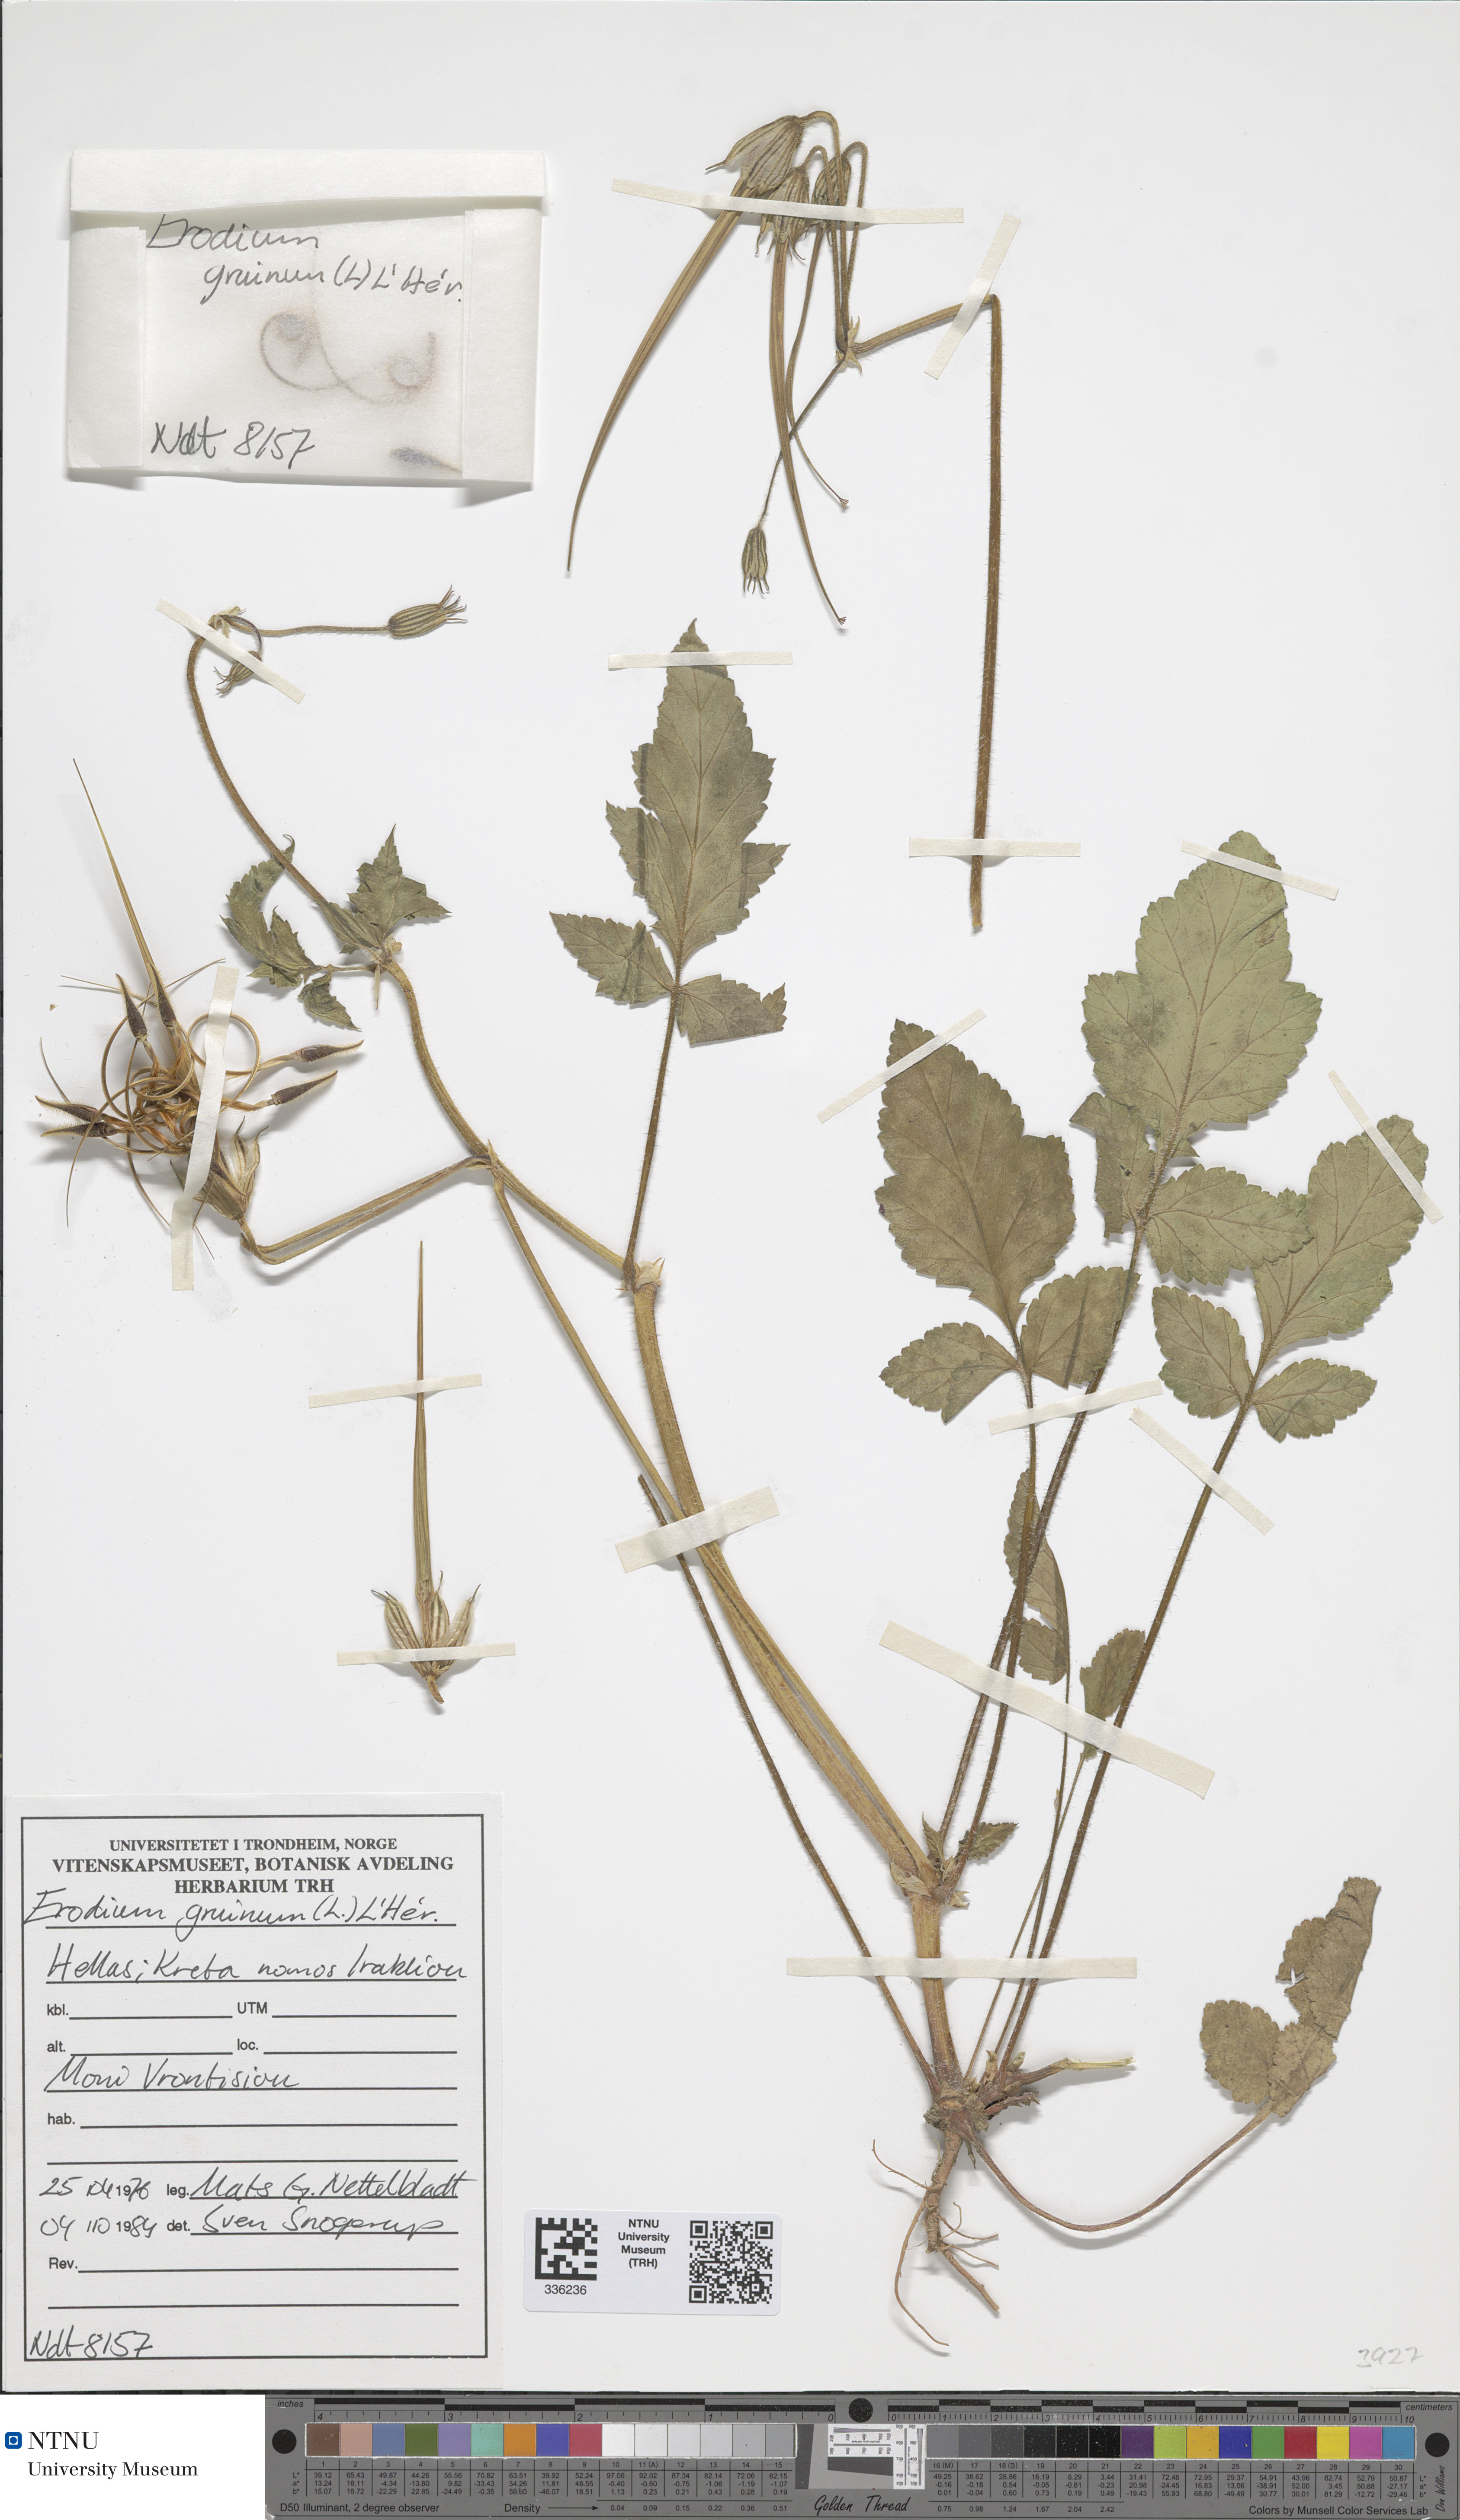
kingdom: Plantae
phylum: Tracheophyta
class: Magnoliopsida
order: Geraniales
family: Geraniaceae
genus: Erodium
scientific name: Erodium gruinum
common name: Iranian stork's bill
